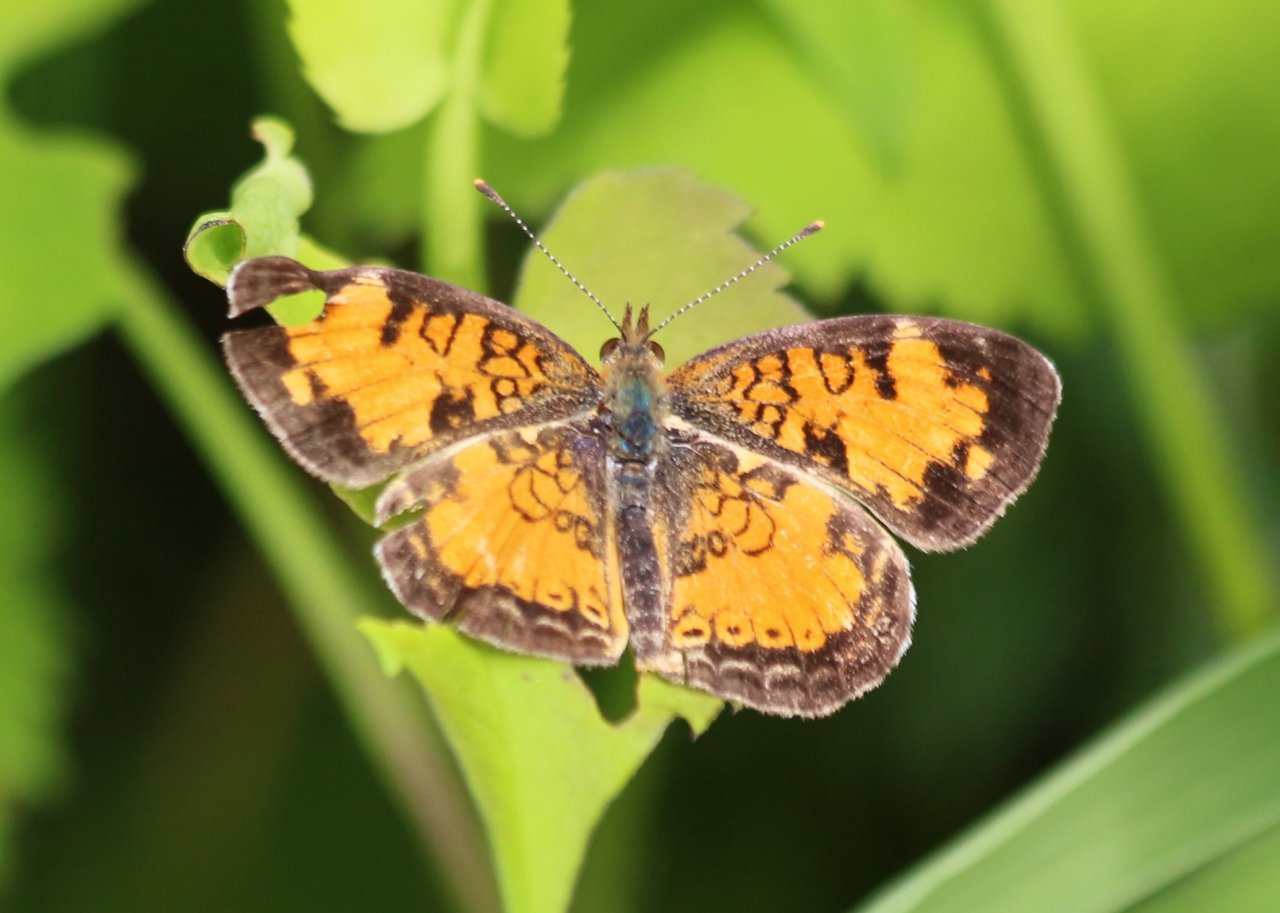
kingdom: Animalia
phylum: Arthropoda
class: Insecta
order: Lepidoptera
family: Nymphalidae
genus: Phyciodes
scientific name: Phyciodes tharos
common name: Northern Crescent
